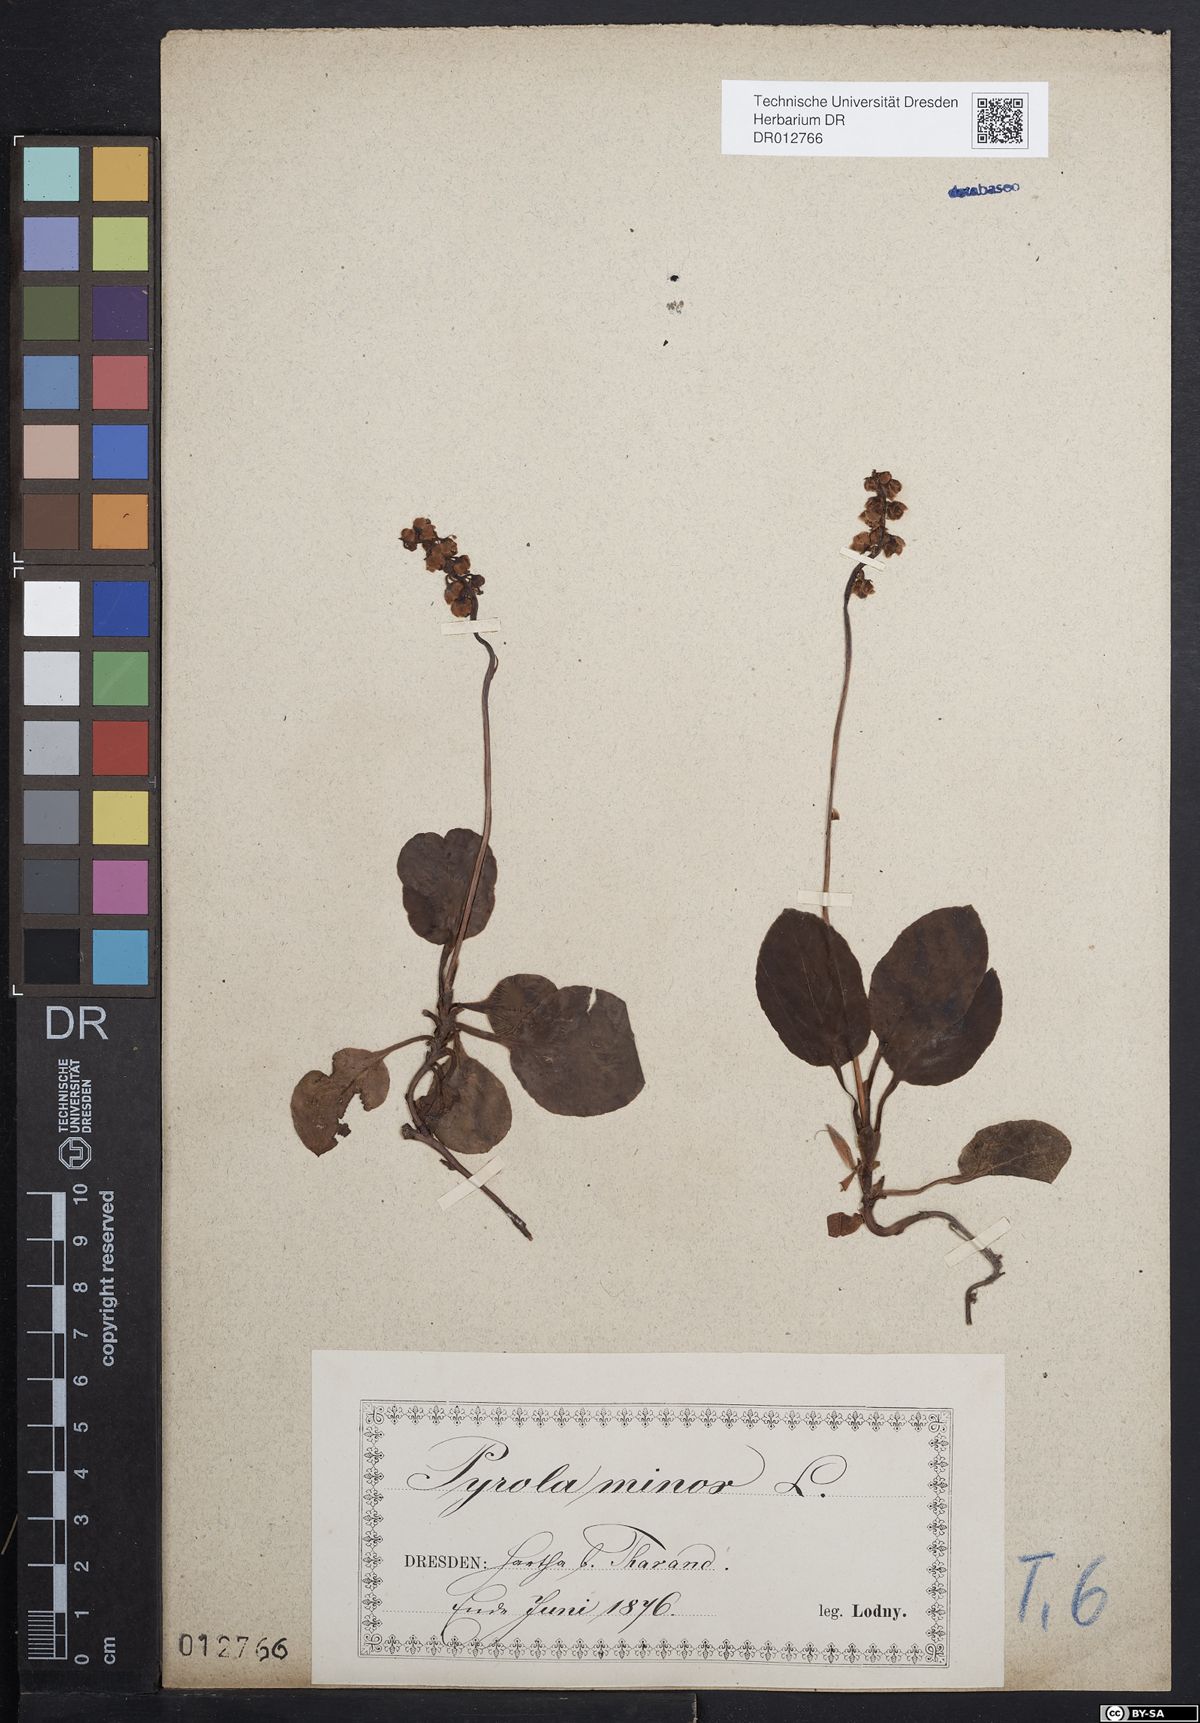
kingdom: Plantae
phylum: Tracheophyta
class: Magnoliopsida
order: Ericales
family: Ericaceae
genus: Pyrola
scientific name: Pyrola minor
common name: Common wintergreen
